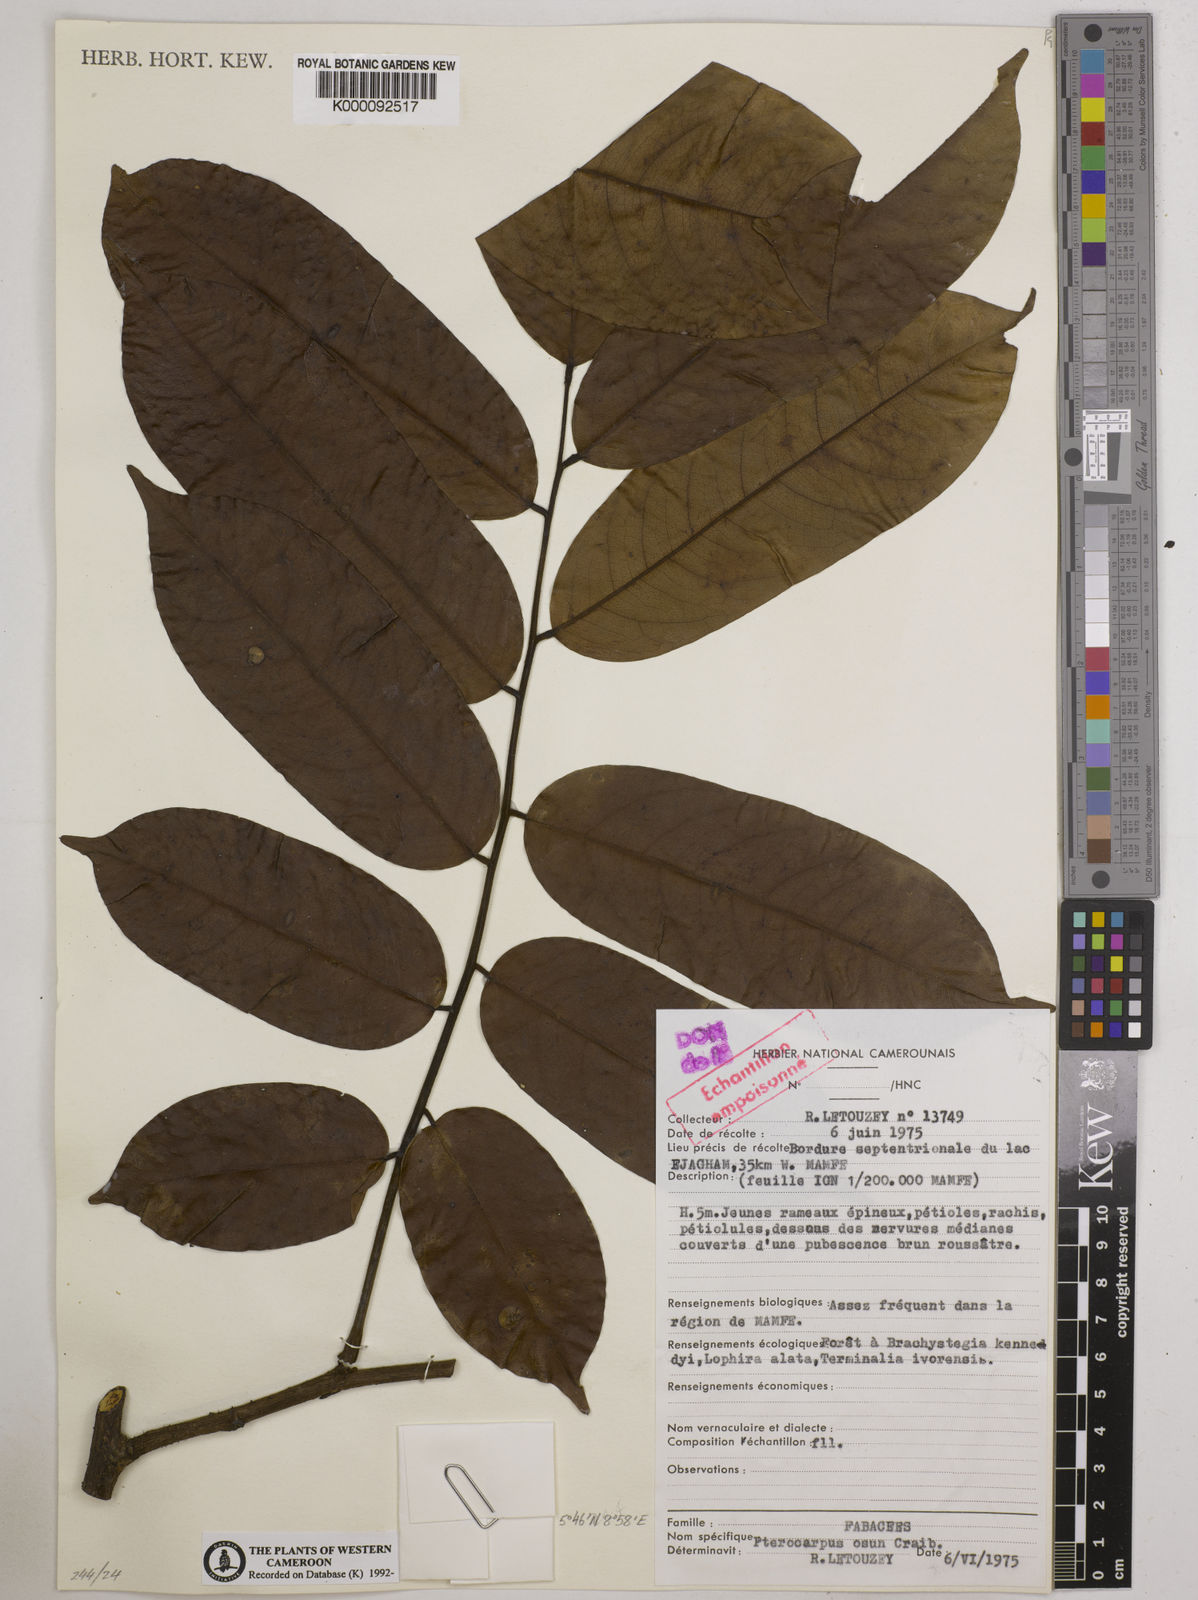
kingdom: Plantae
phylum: Tracheophyta
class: Magnoliopsida
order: Fabales
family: Fabaceae
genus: Pterocarpus
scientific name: Pterocarpus osun
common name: Camwood
